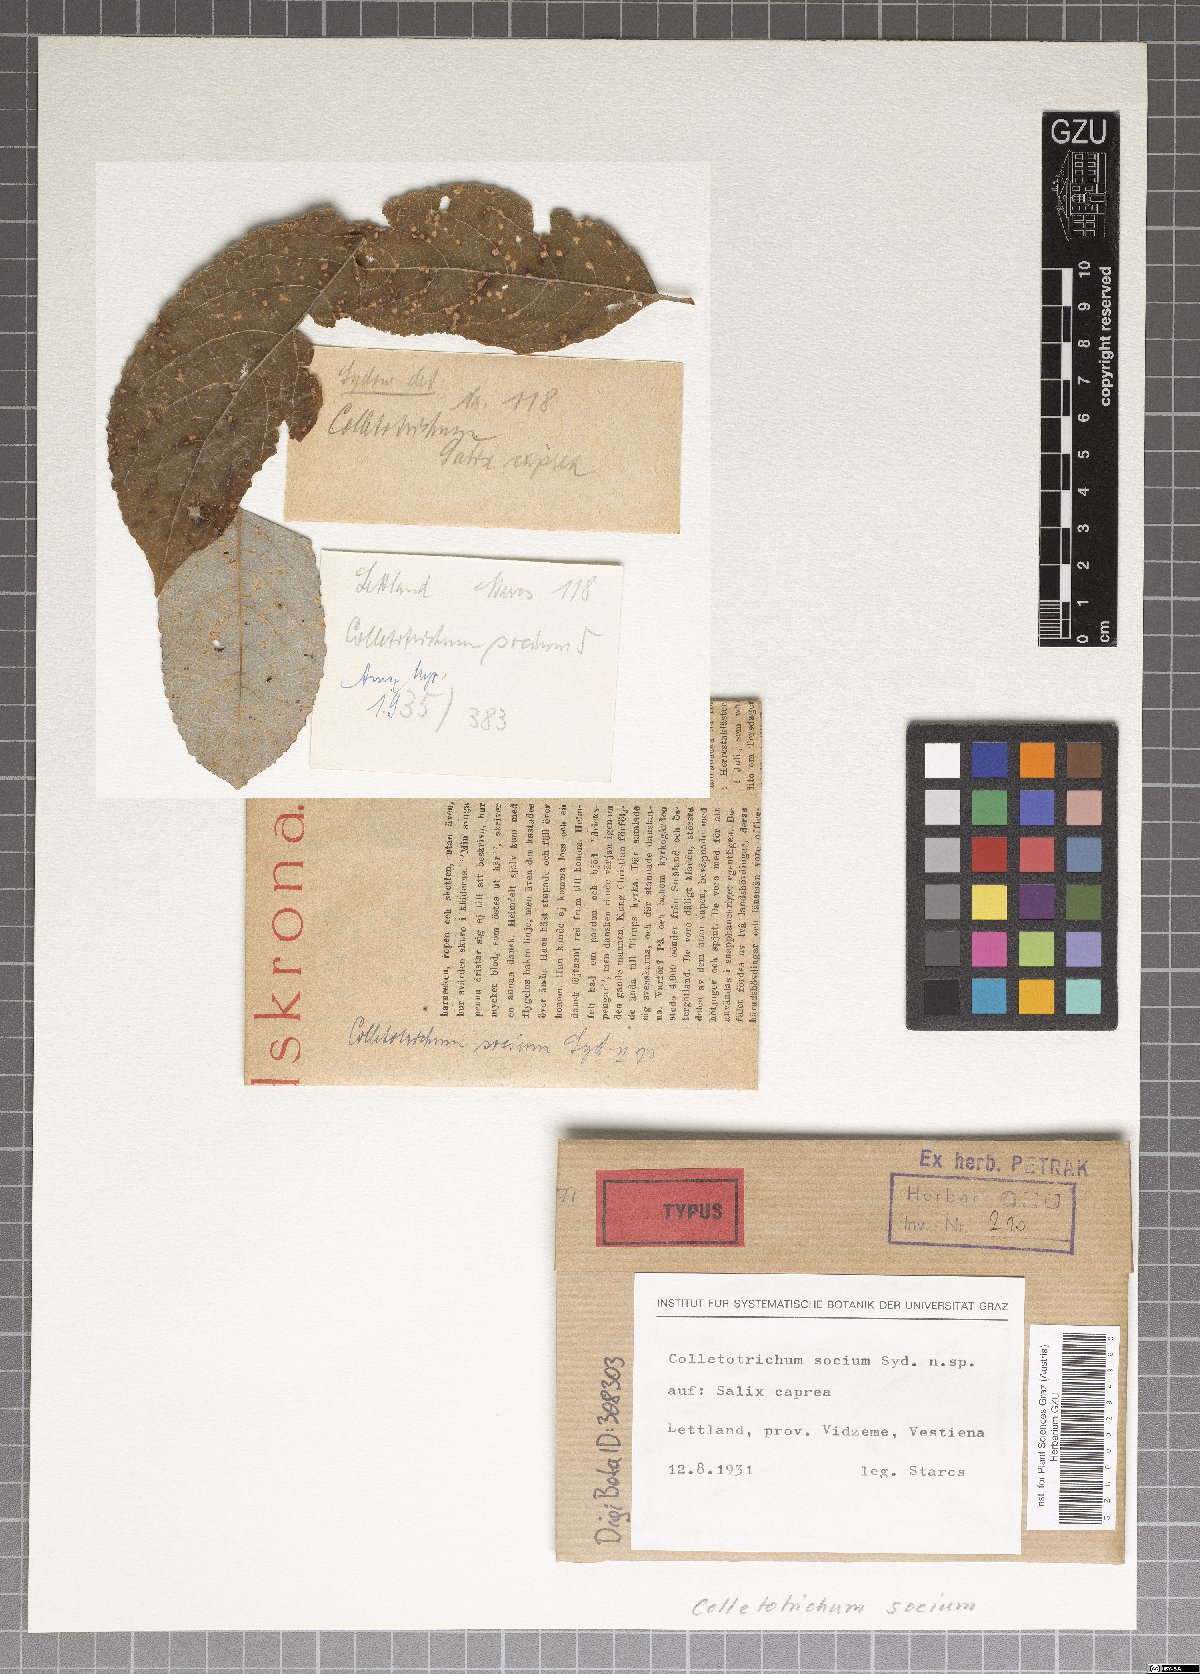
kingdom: Fungi
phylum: Ascomycota
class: Sordariomycetes
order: Glomerellales
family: Glomerellaceae
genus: Colletotrichum
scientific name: Colletotrichum
